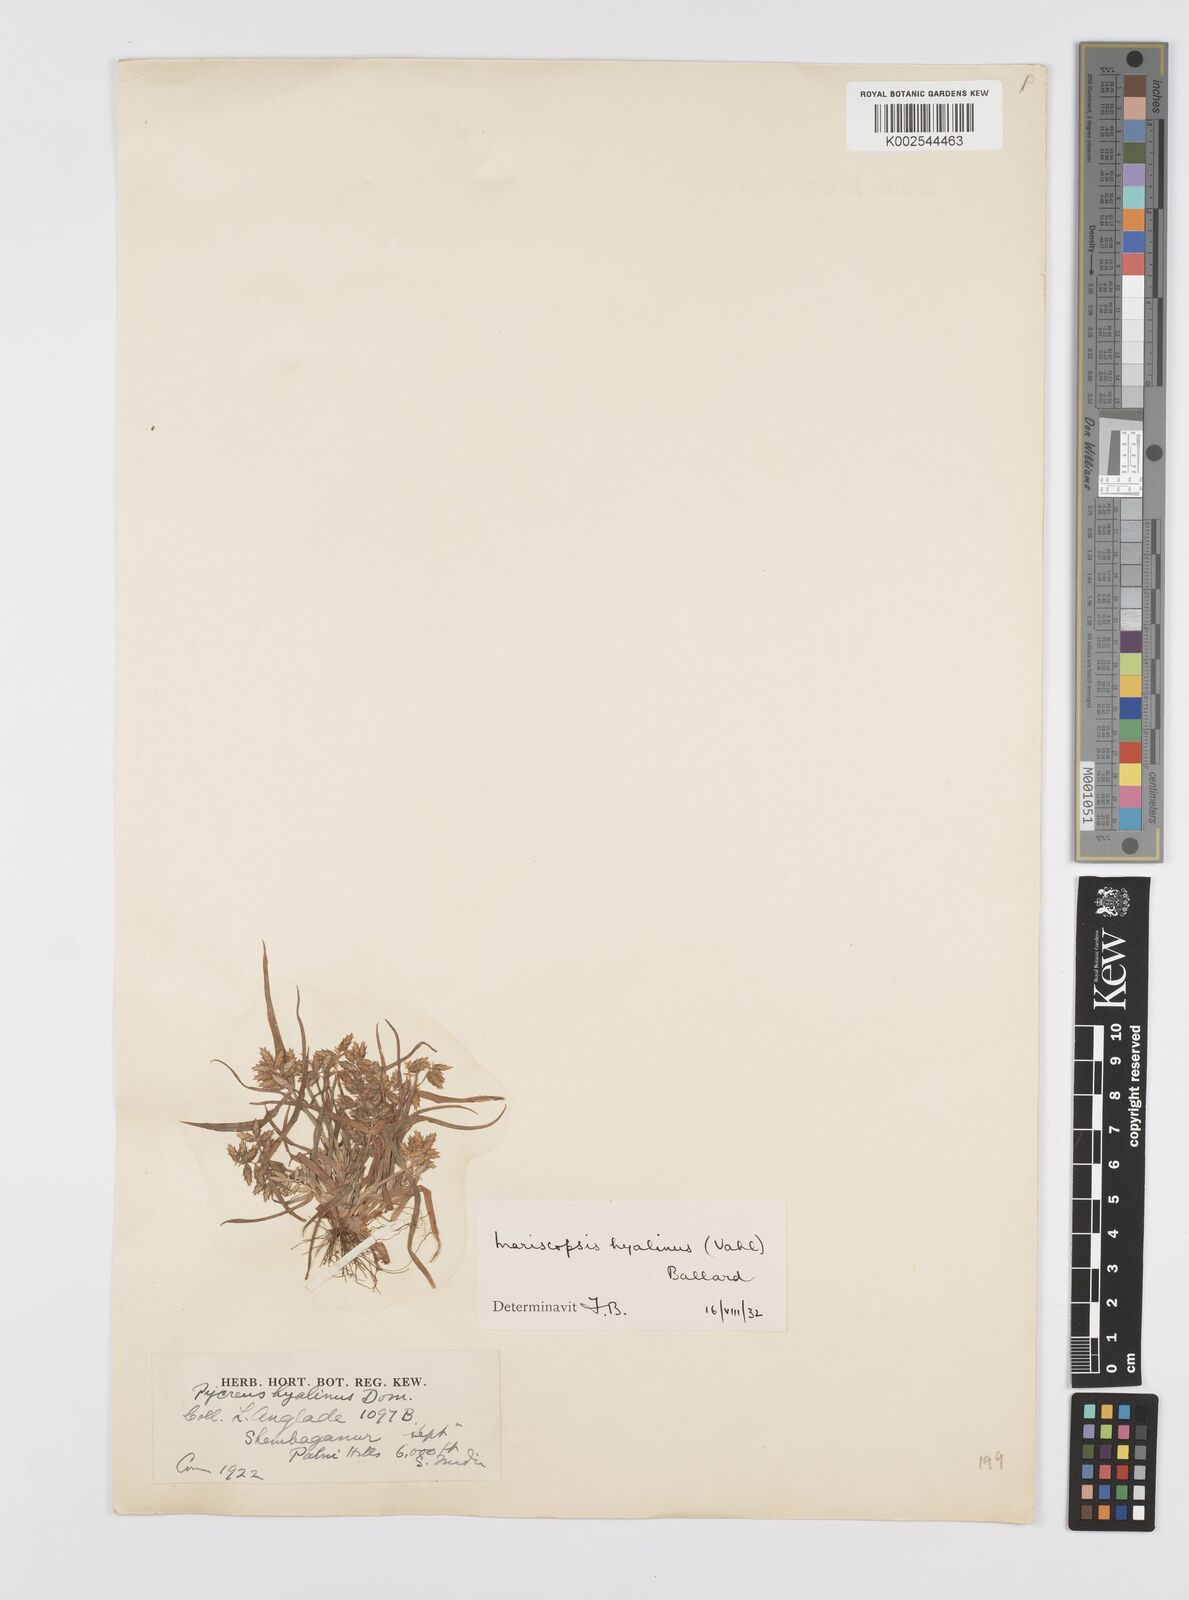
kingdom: Plantae
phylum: Tracheophyta
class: Liliopsida
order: Poales
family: Cyperaceae
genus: Cyperus
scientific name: Cyperus hyalinus
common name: Queensland sedge
